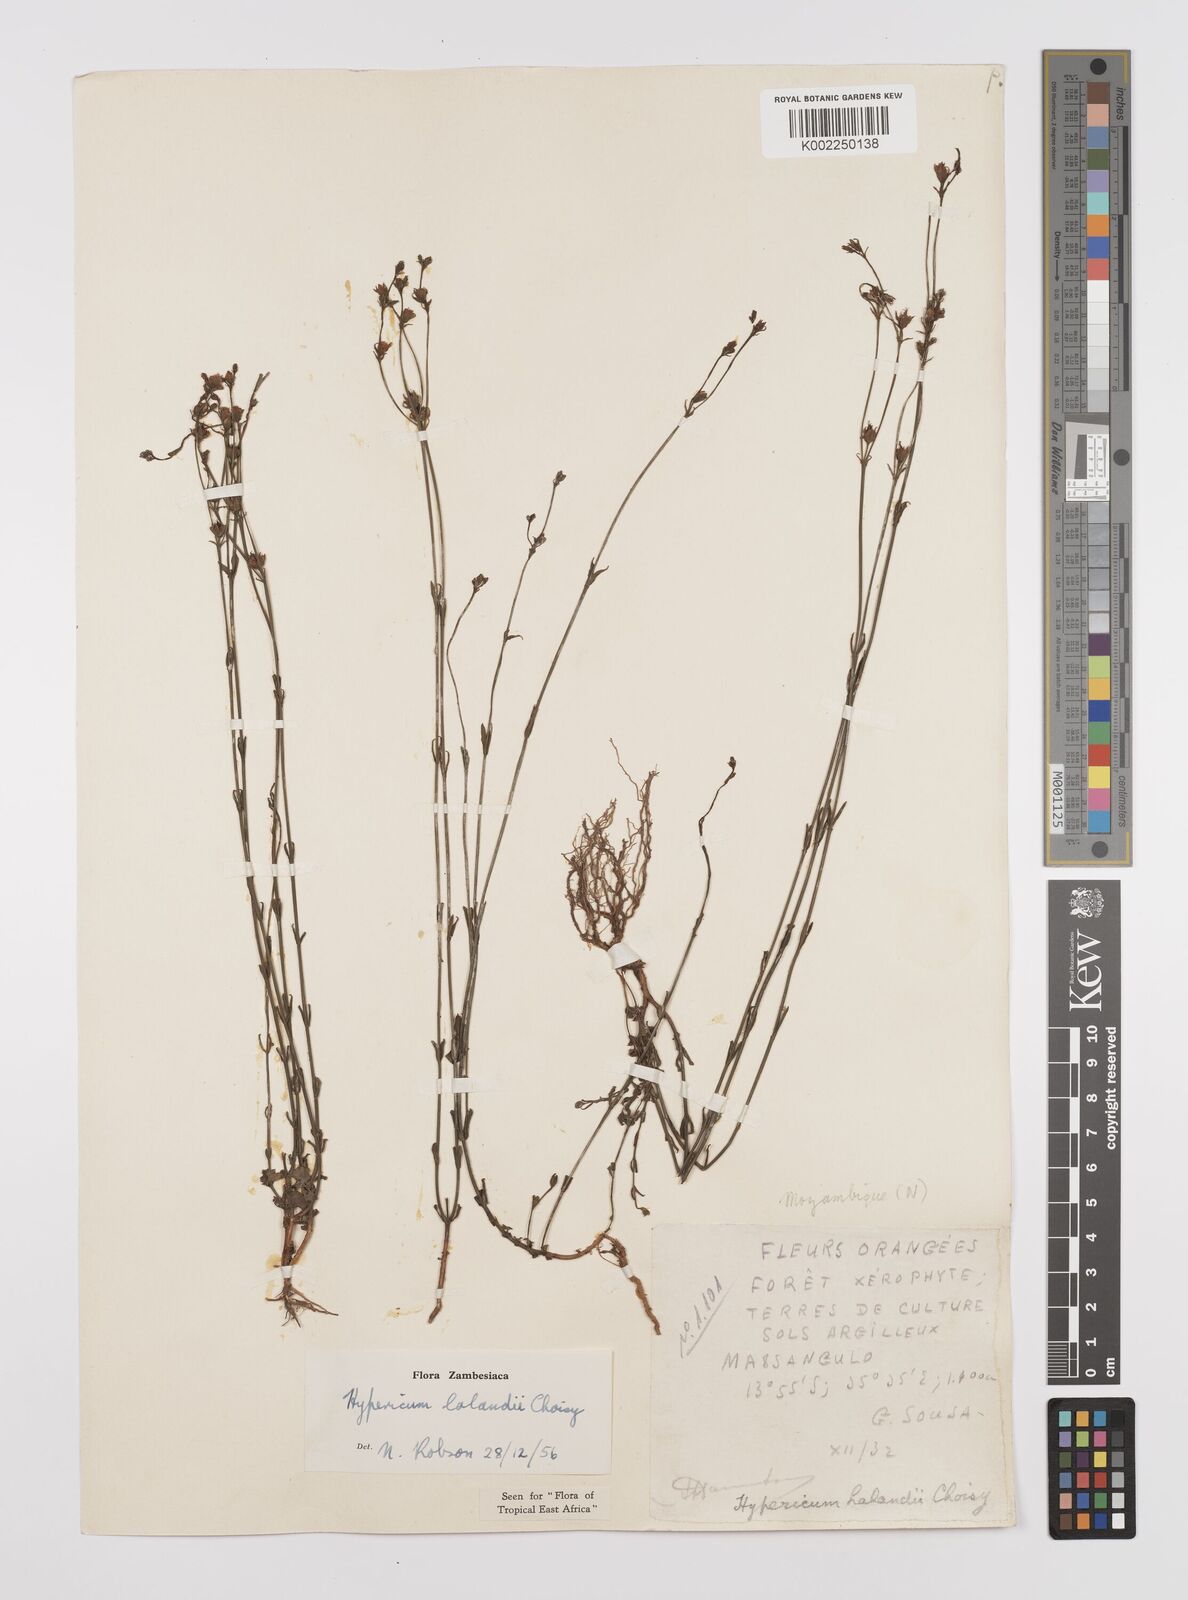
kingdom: Plantae
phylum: Tracheophyta
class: Magnoliopsida
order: Malpighiales
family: Hypericaceae
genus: Hypericum
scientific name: Hypericum lalandii
